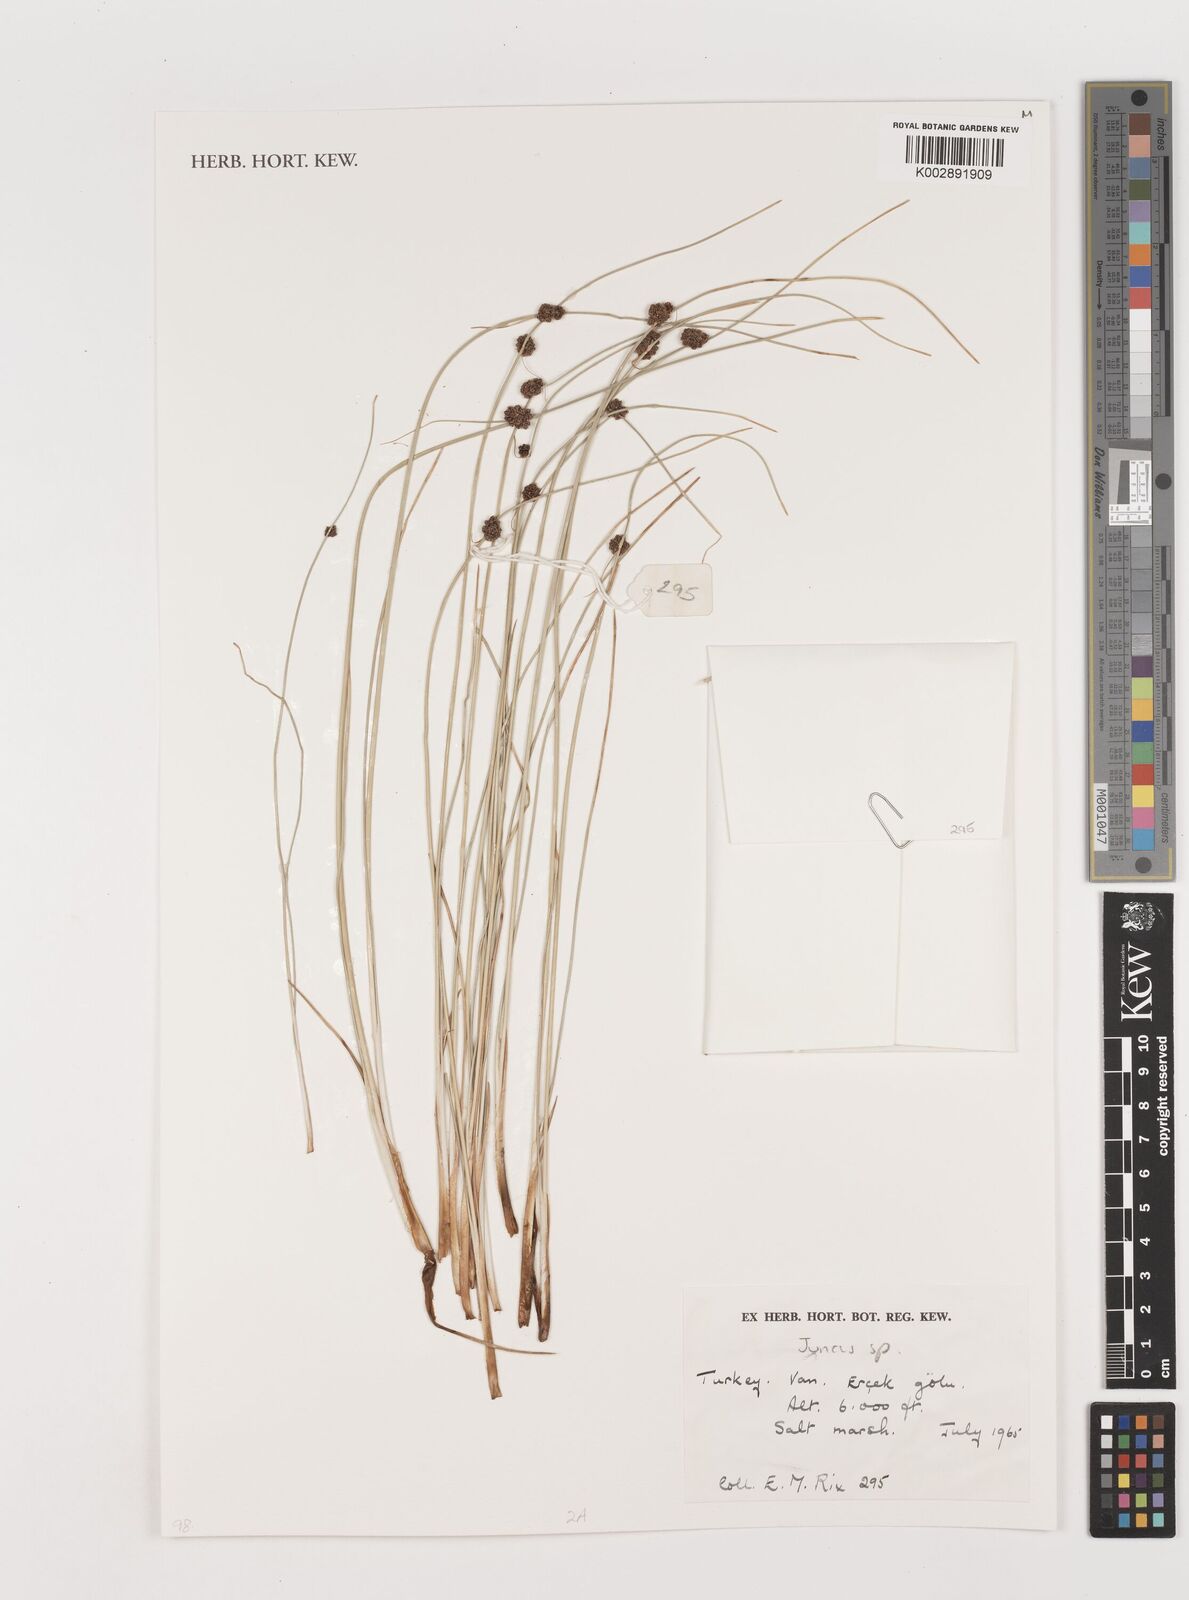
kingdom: Plantae
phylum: Tracheophyta
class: Liliopsida
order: Poales
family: Juncaceae
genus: Juncus
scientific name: Juncus
